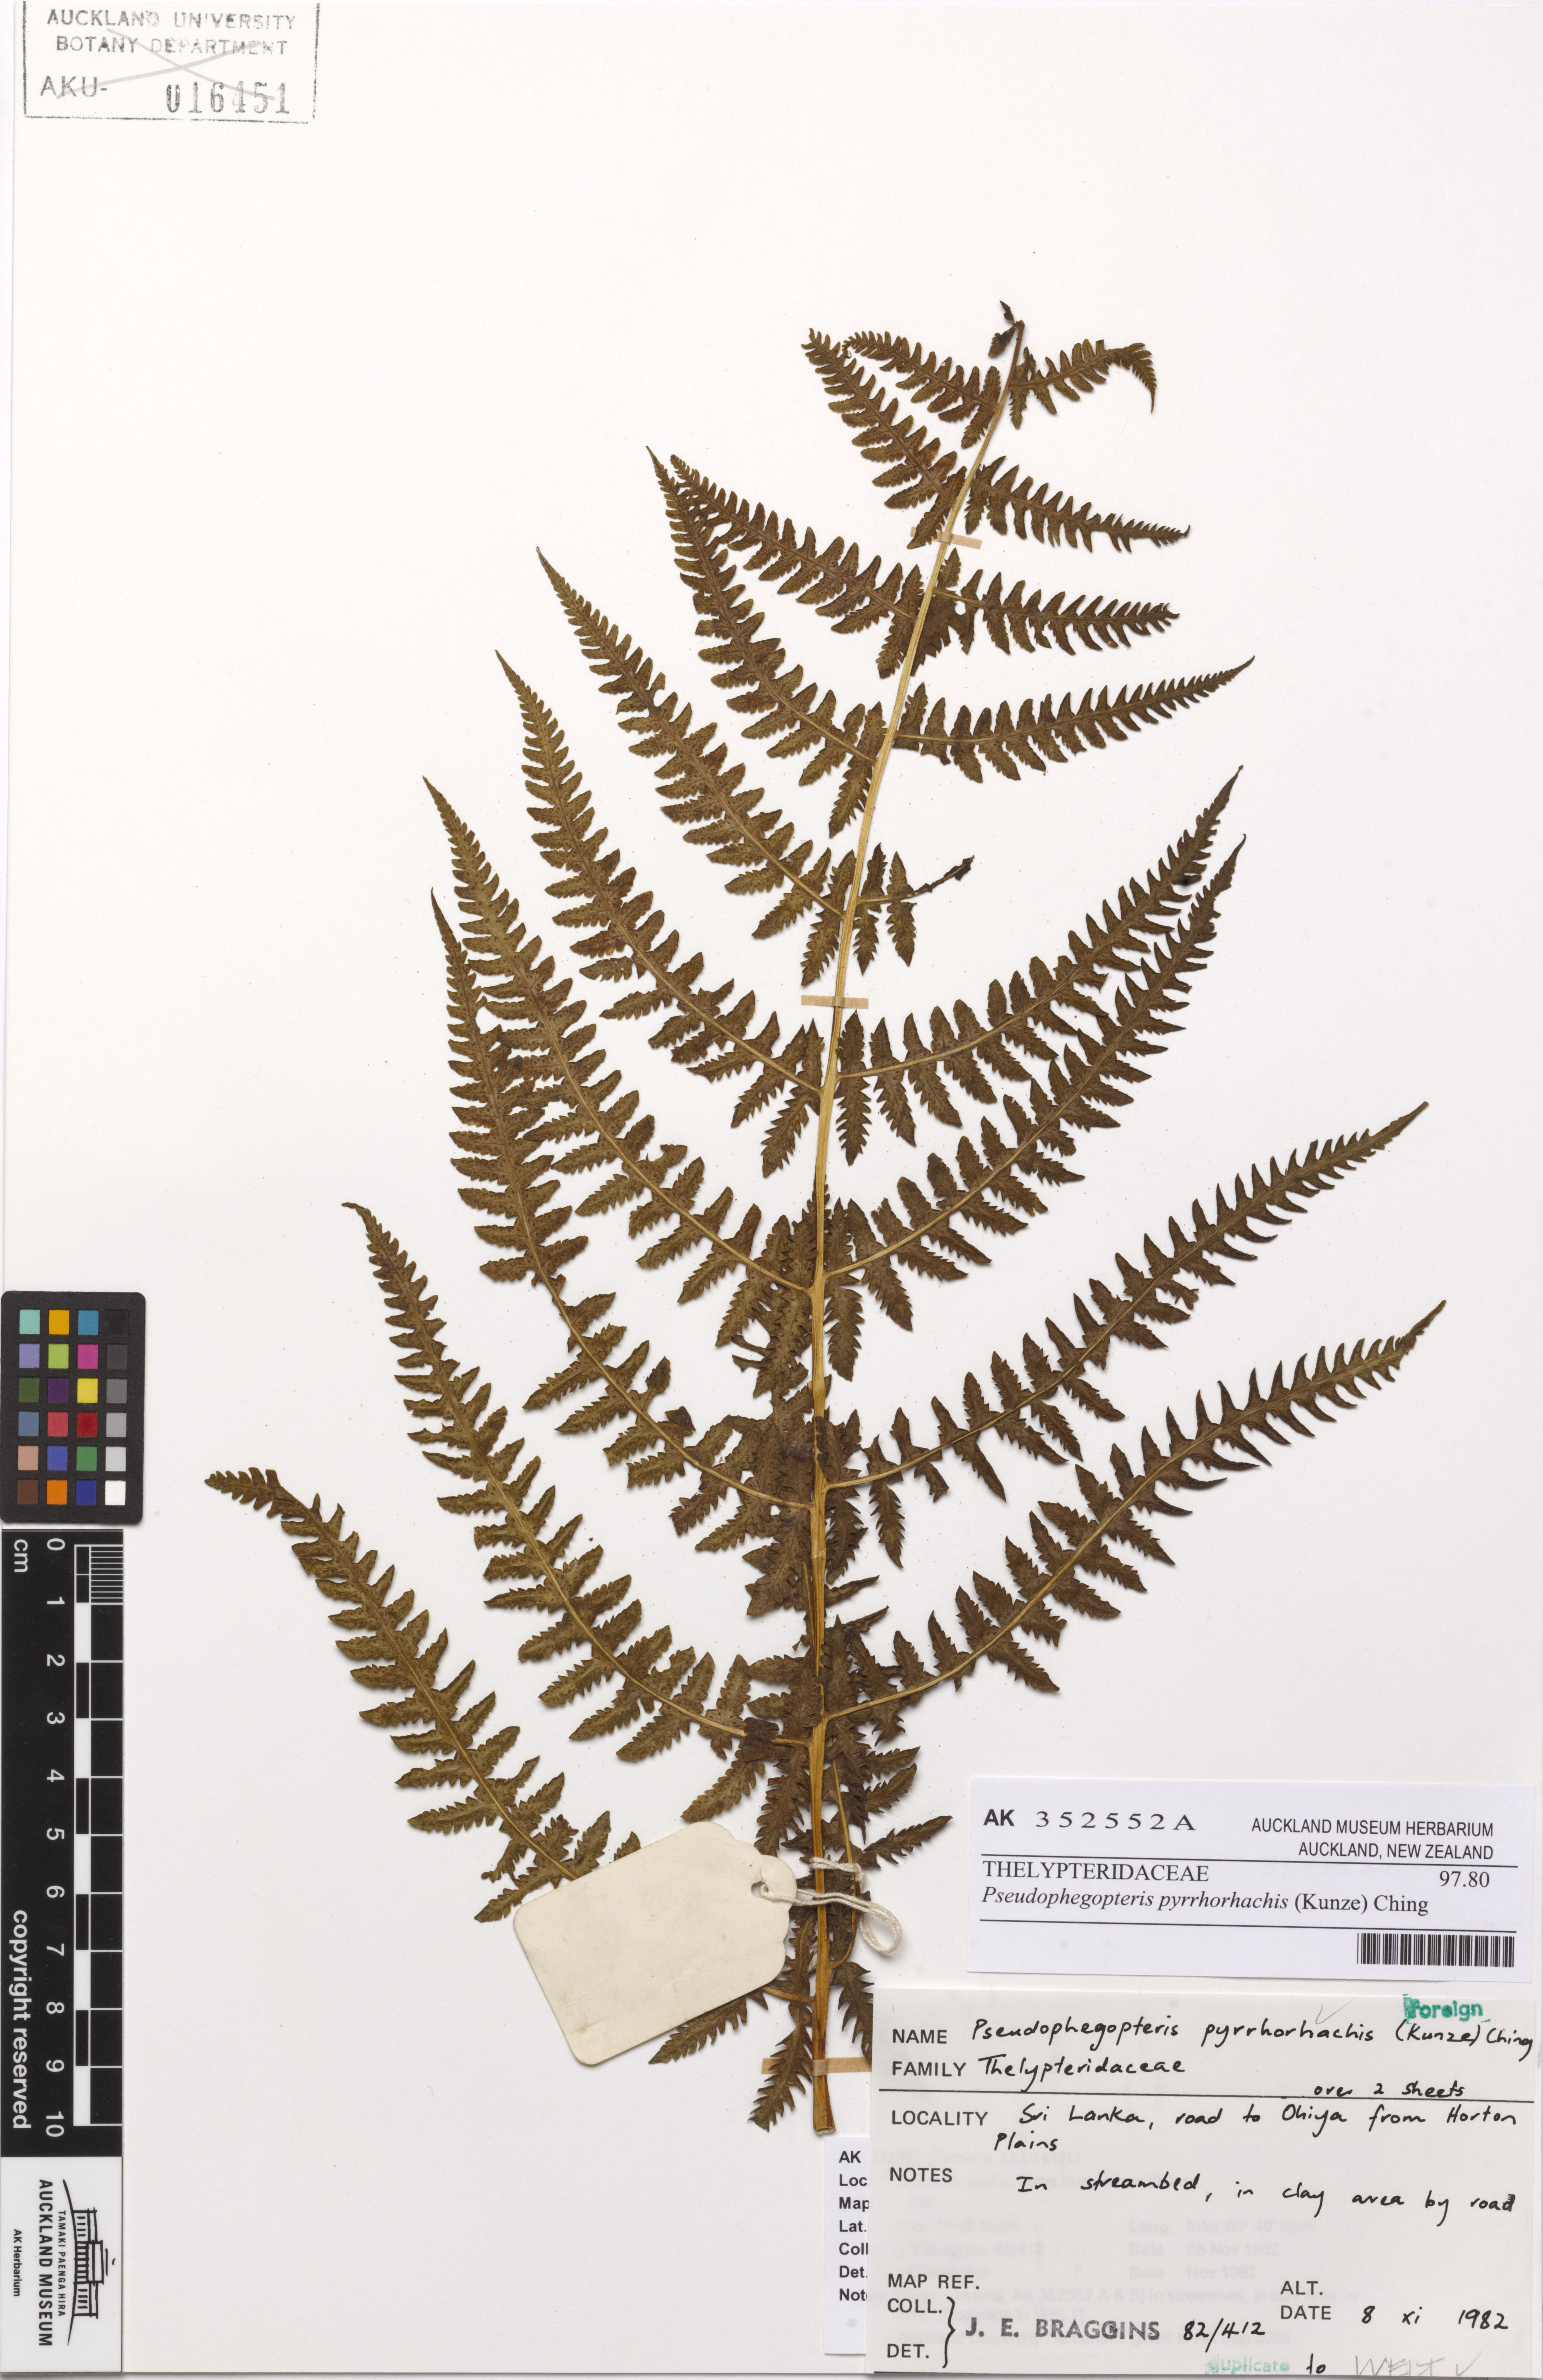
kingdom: Plantae
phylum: Tracheophyta
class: Polypodiopsida
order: Polypodiales
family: Thelypteridaceae
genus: Pseudophegopteris
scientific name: Pseudophegopteris pyrrhorachis
